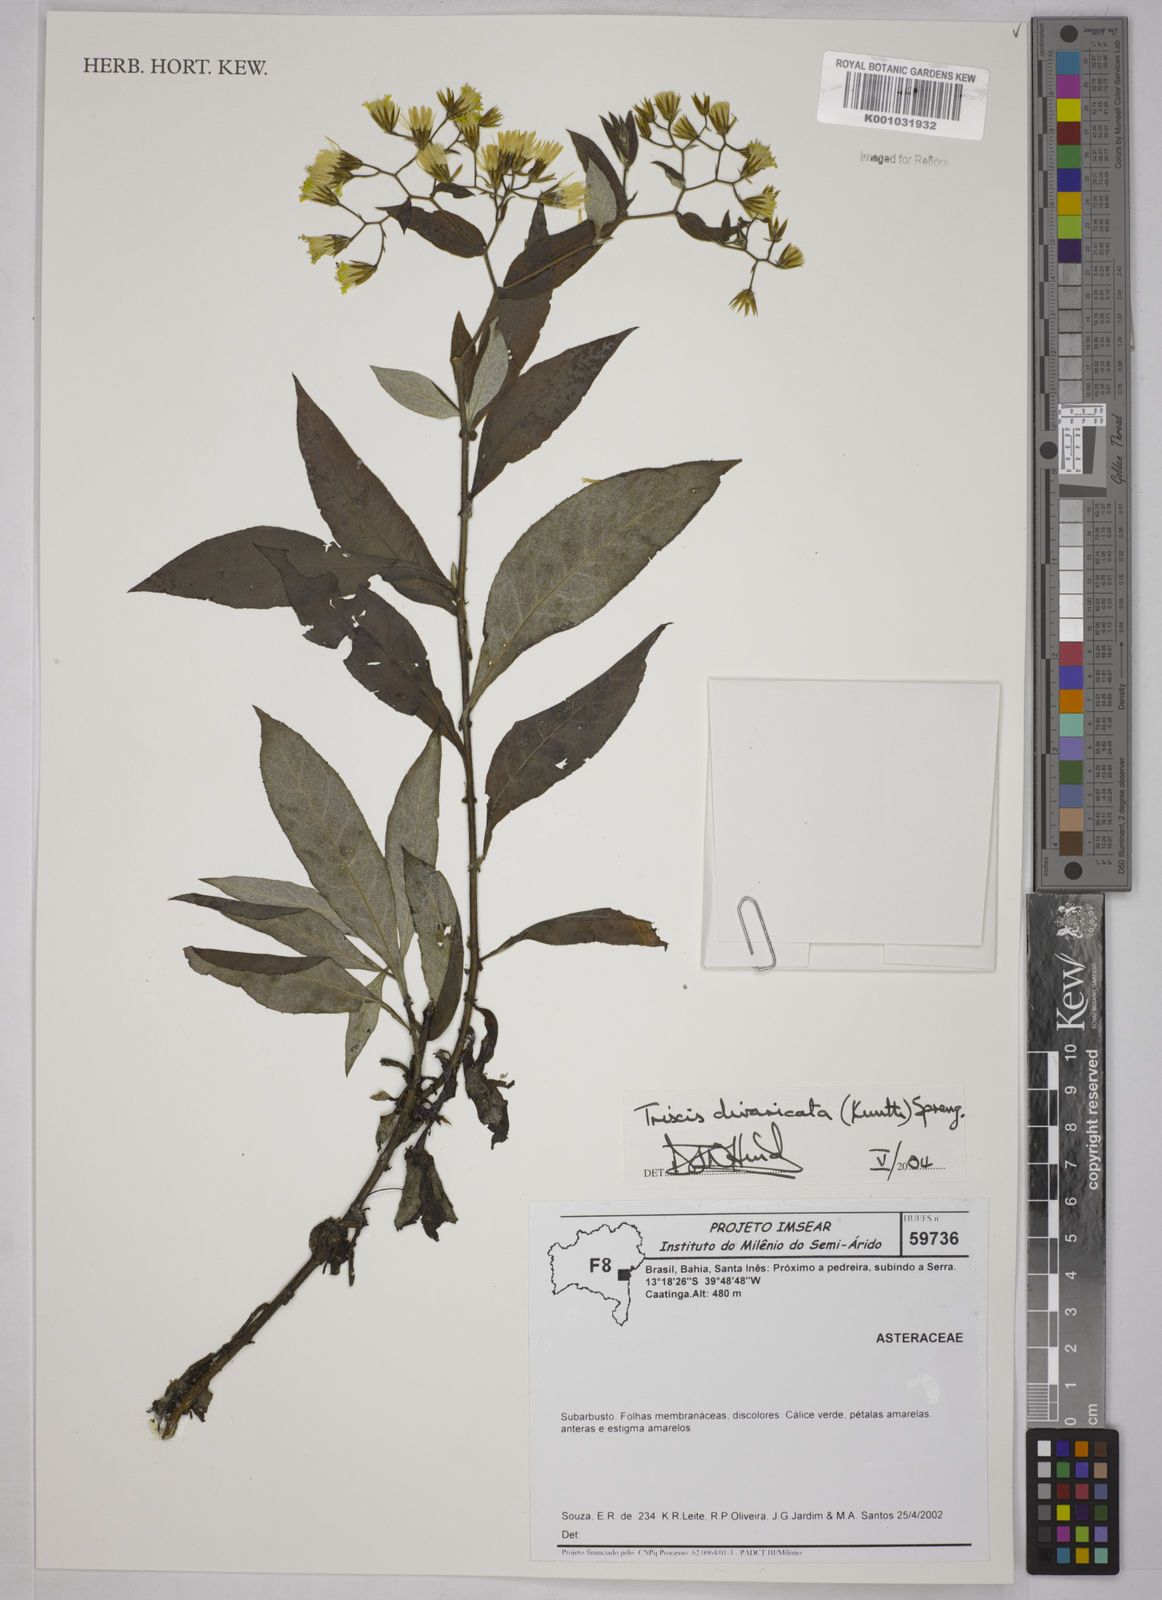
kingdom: Plantae
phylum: Tracheophyta
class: Magnoliopsida
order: Asterales
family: Asteraceae
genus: Trixis
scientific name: Trixis divaricata
